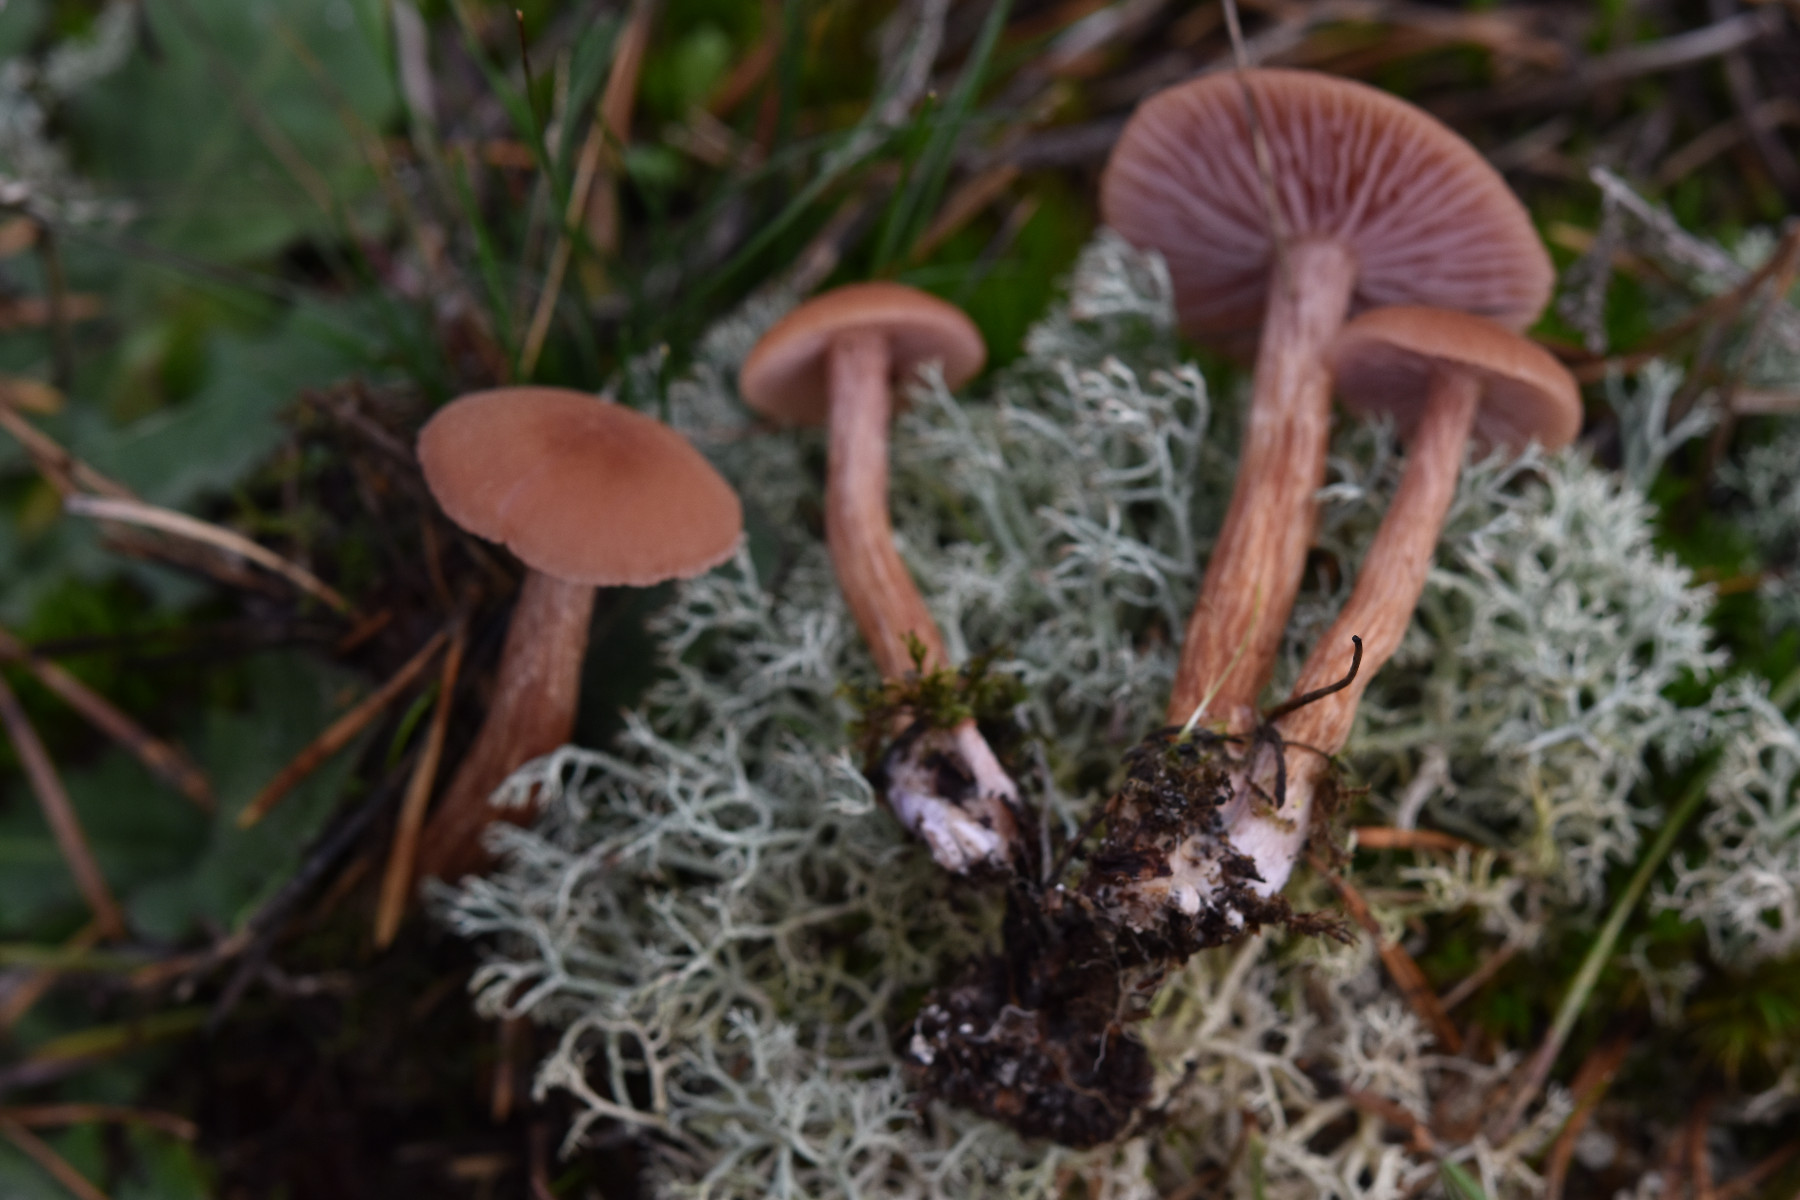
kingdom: Fungi
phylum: Basidiomycota
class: Agaricomycetes
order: Agaricales
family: Hydnangiaceae
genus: Laccaria
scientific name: Laccaria bicolor
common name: tvefarvet ametysthat
